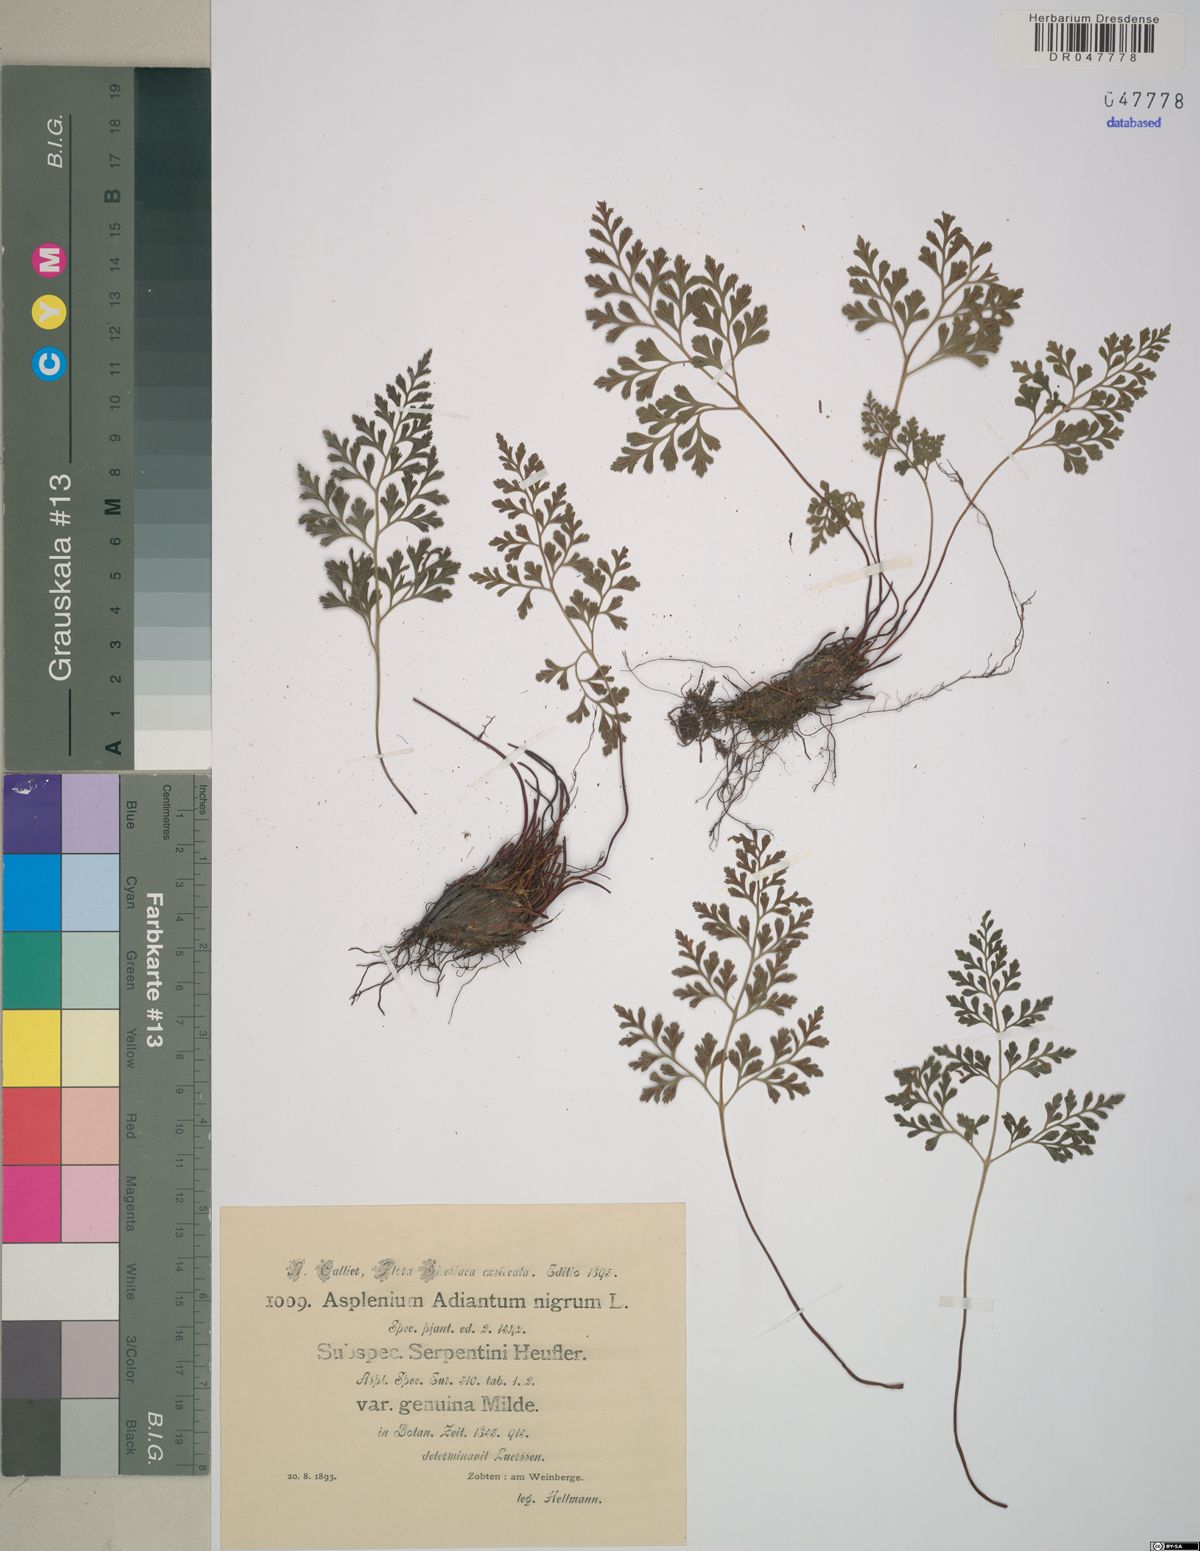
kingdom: Plantae
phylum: Tracheophyta
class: Polypodiopsida
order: Polypodiales
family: Aspleniaceae
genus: Asplenium
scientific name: Asplenium cuneifolium
